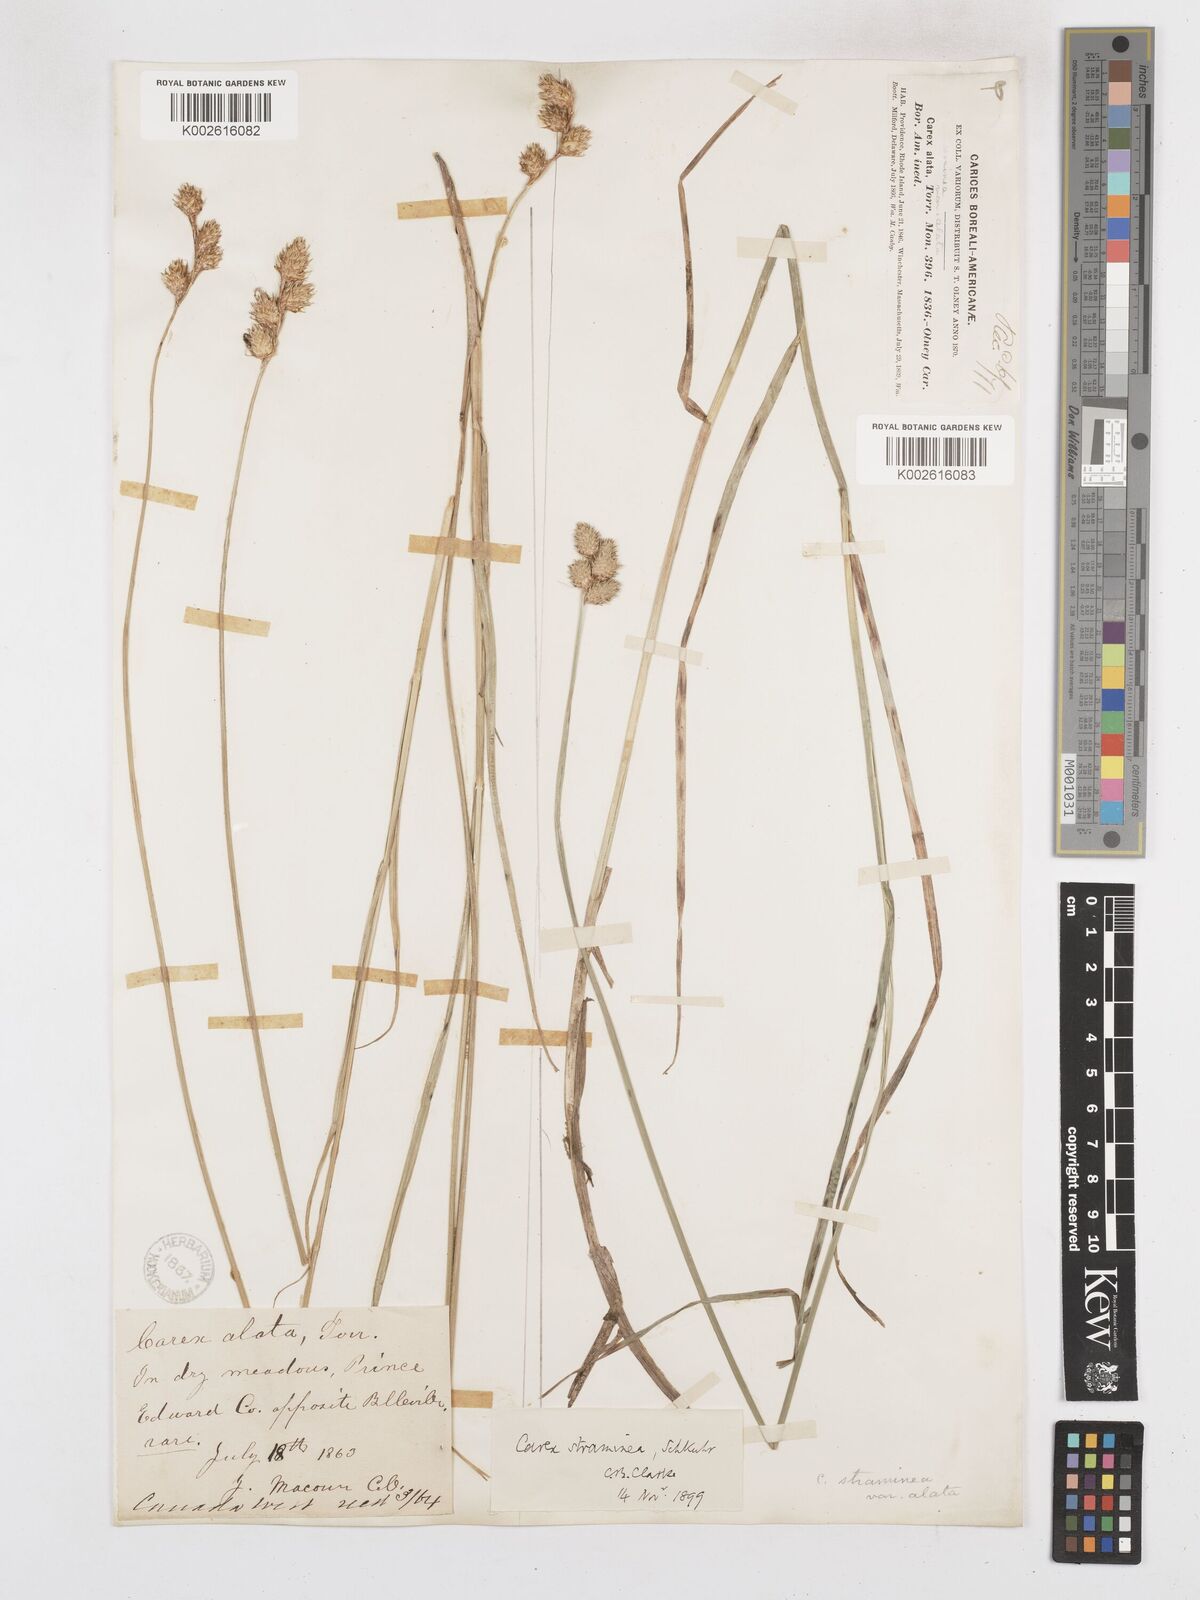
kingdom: Plantae
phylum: Tracheophyta
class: Liliopsida
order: Poales
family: Cyperaceae
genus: Carex
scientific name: Carex brevior
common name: Brevior sedge
